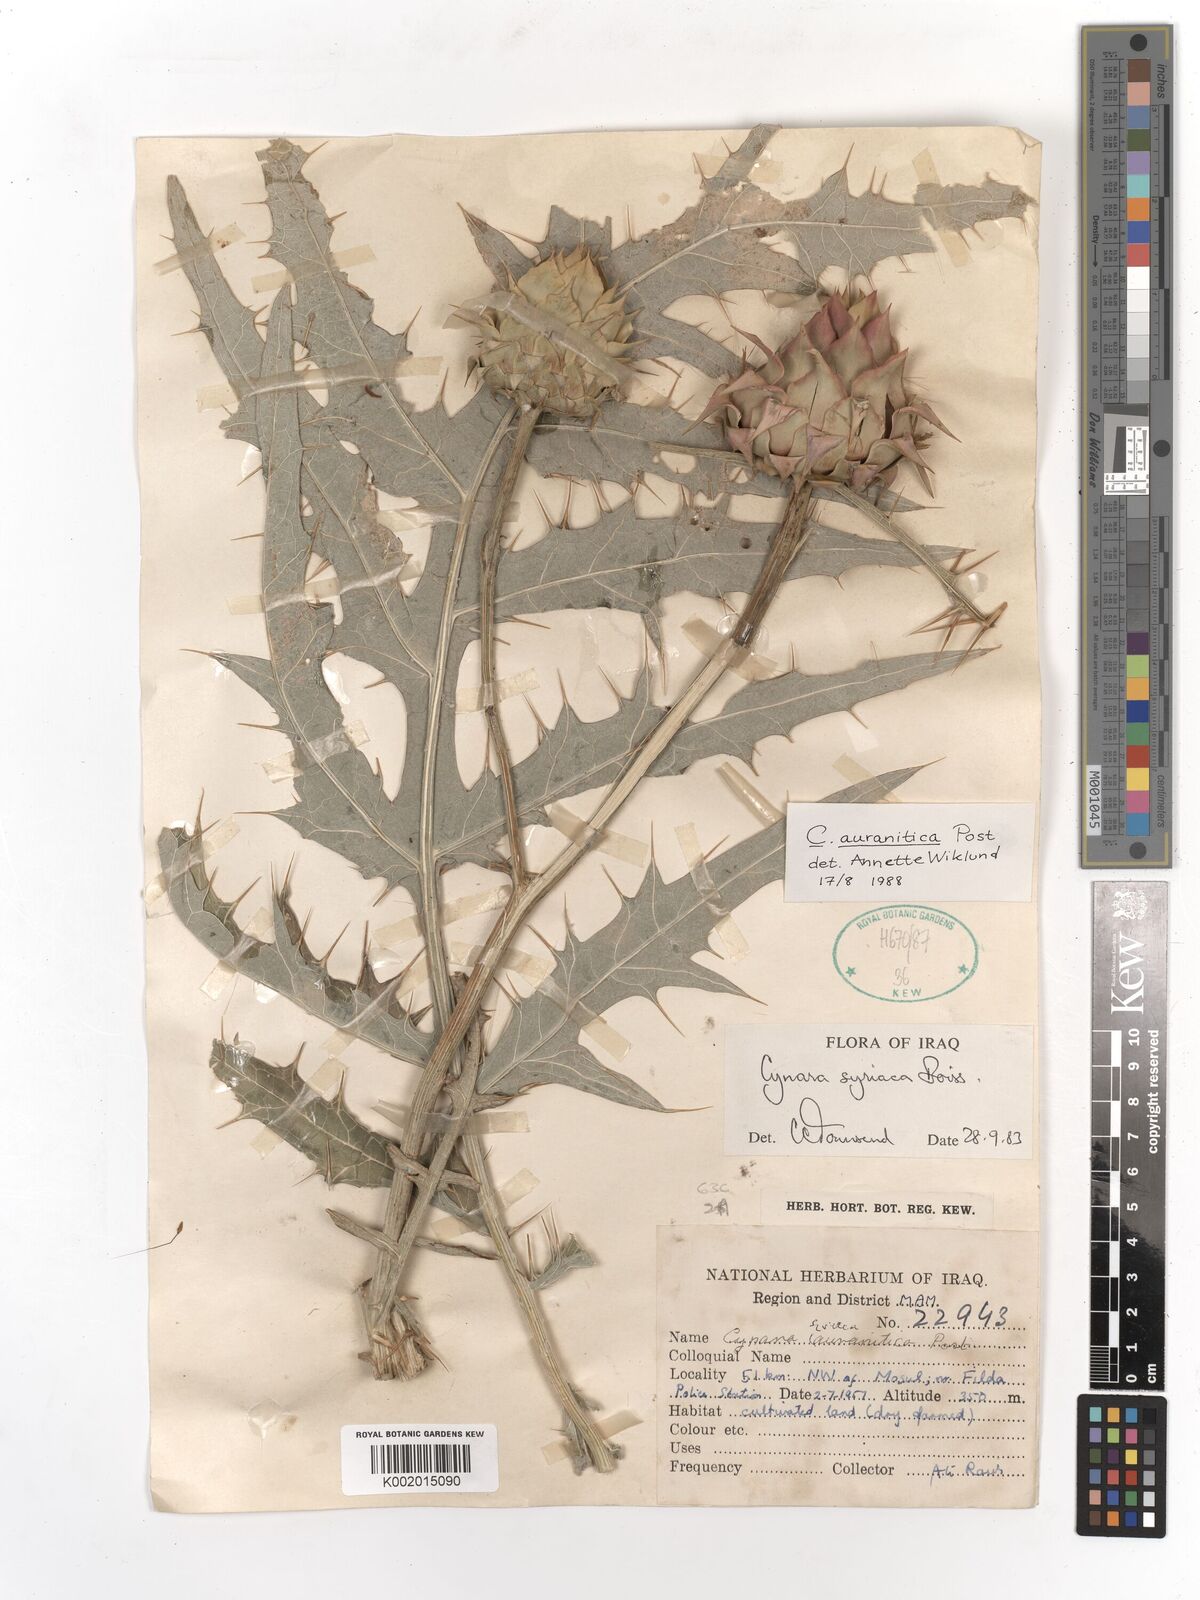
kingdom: Plantae
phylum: Tracheophyta
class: Magnoliopsida
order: Asterales
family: Asteraceae
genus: Cynara
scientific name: Cynara auranitica
